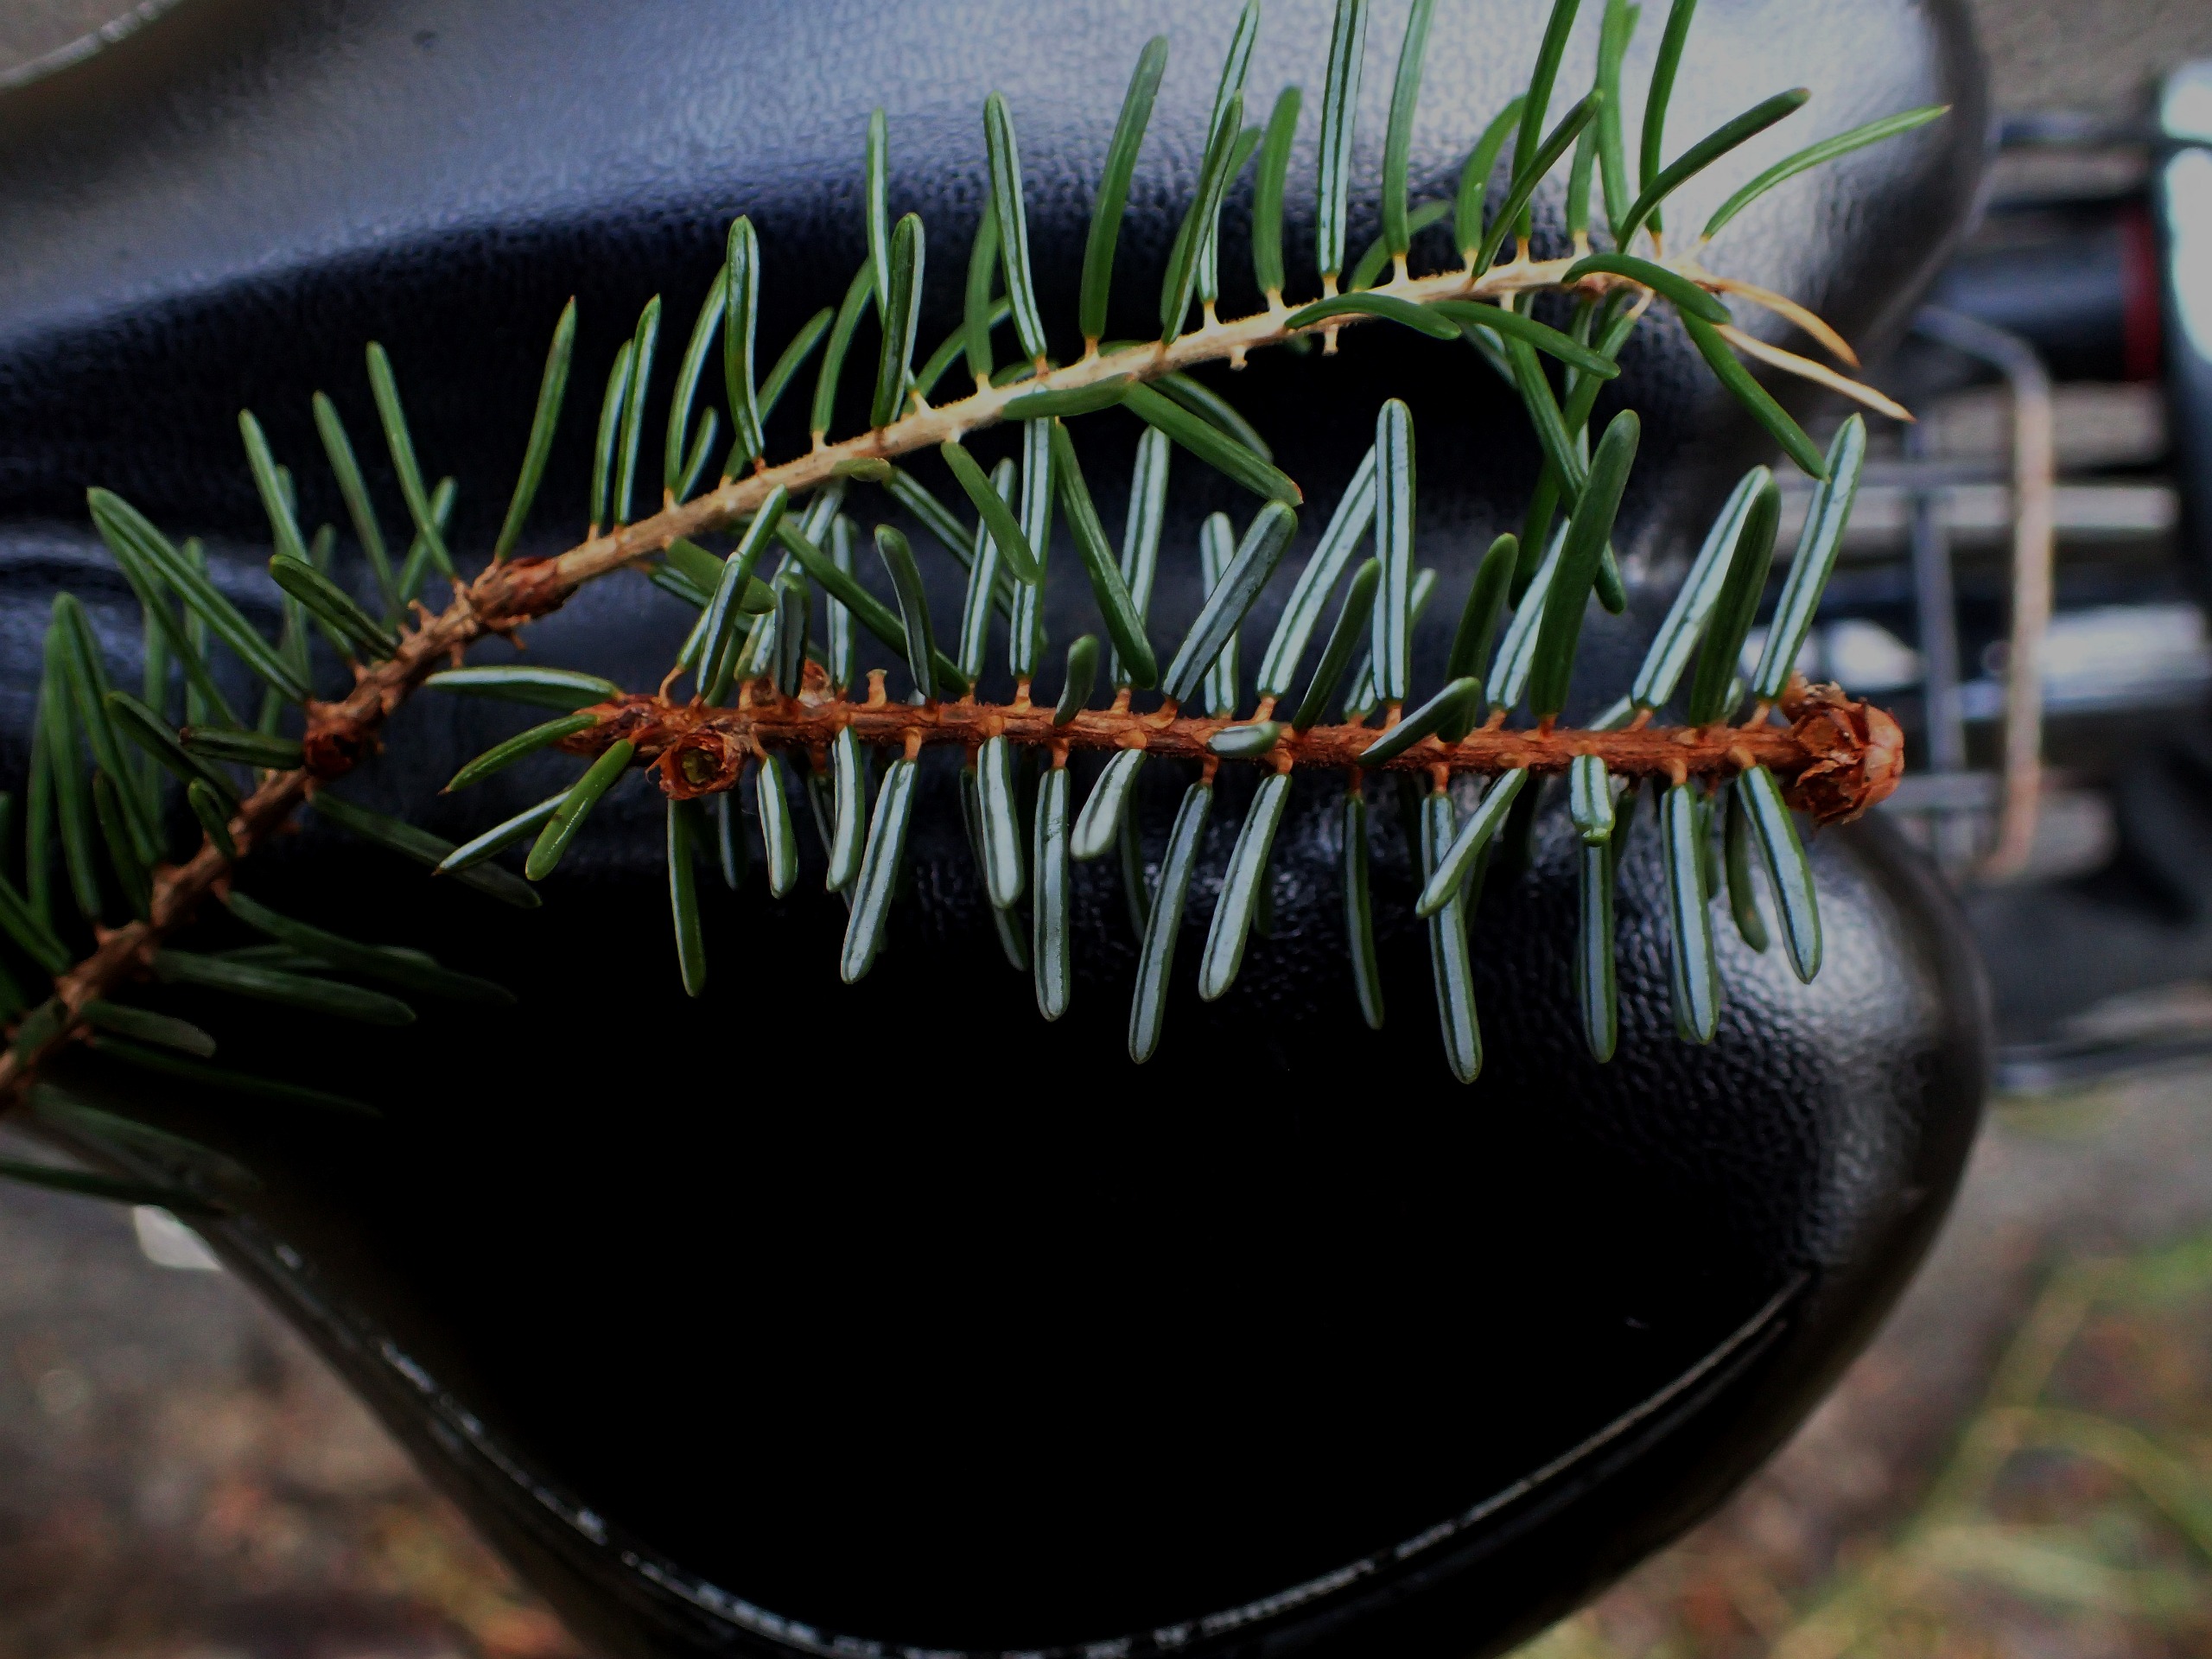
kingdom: Plantae
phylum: Tracheophyta
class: Pinopsida
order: Pinales
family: Pinaceae
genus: Picea
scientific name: Picea omorika
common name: Omorika-gran
